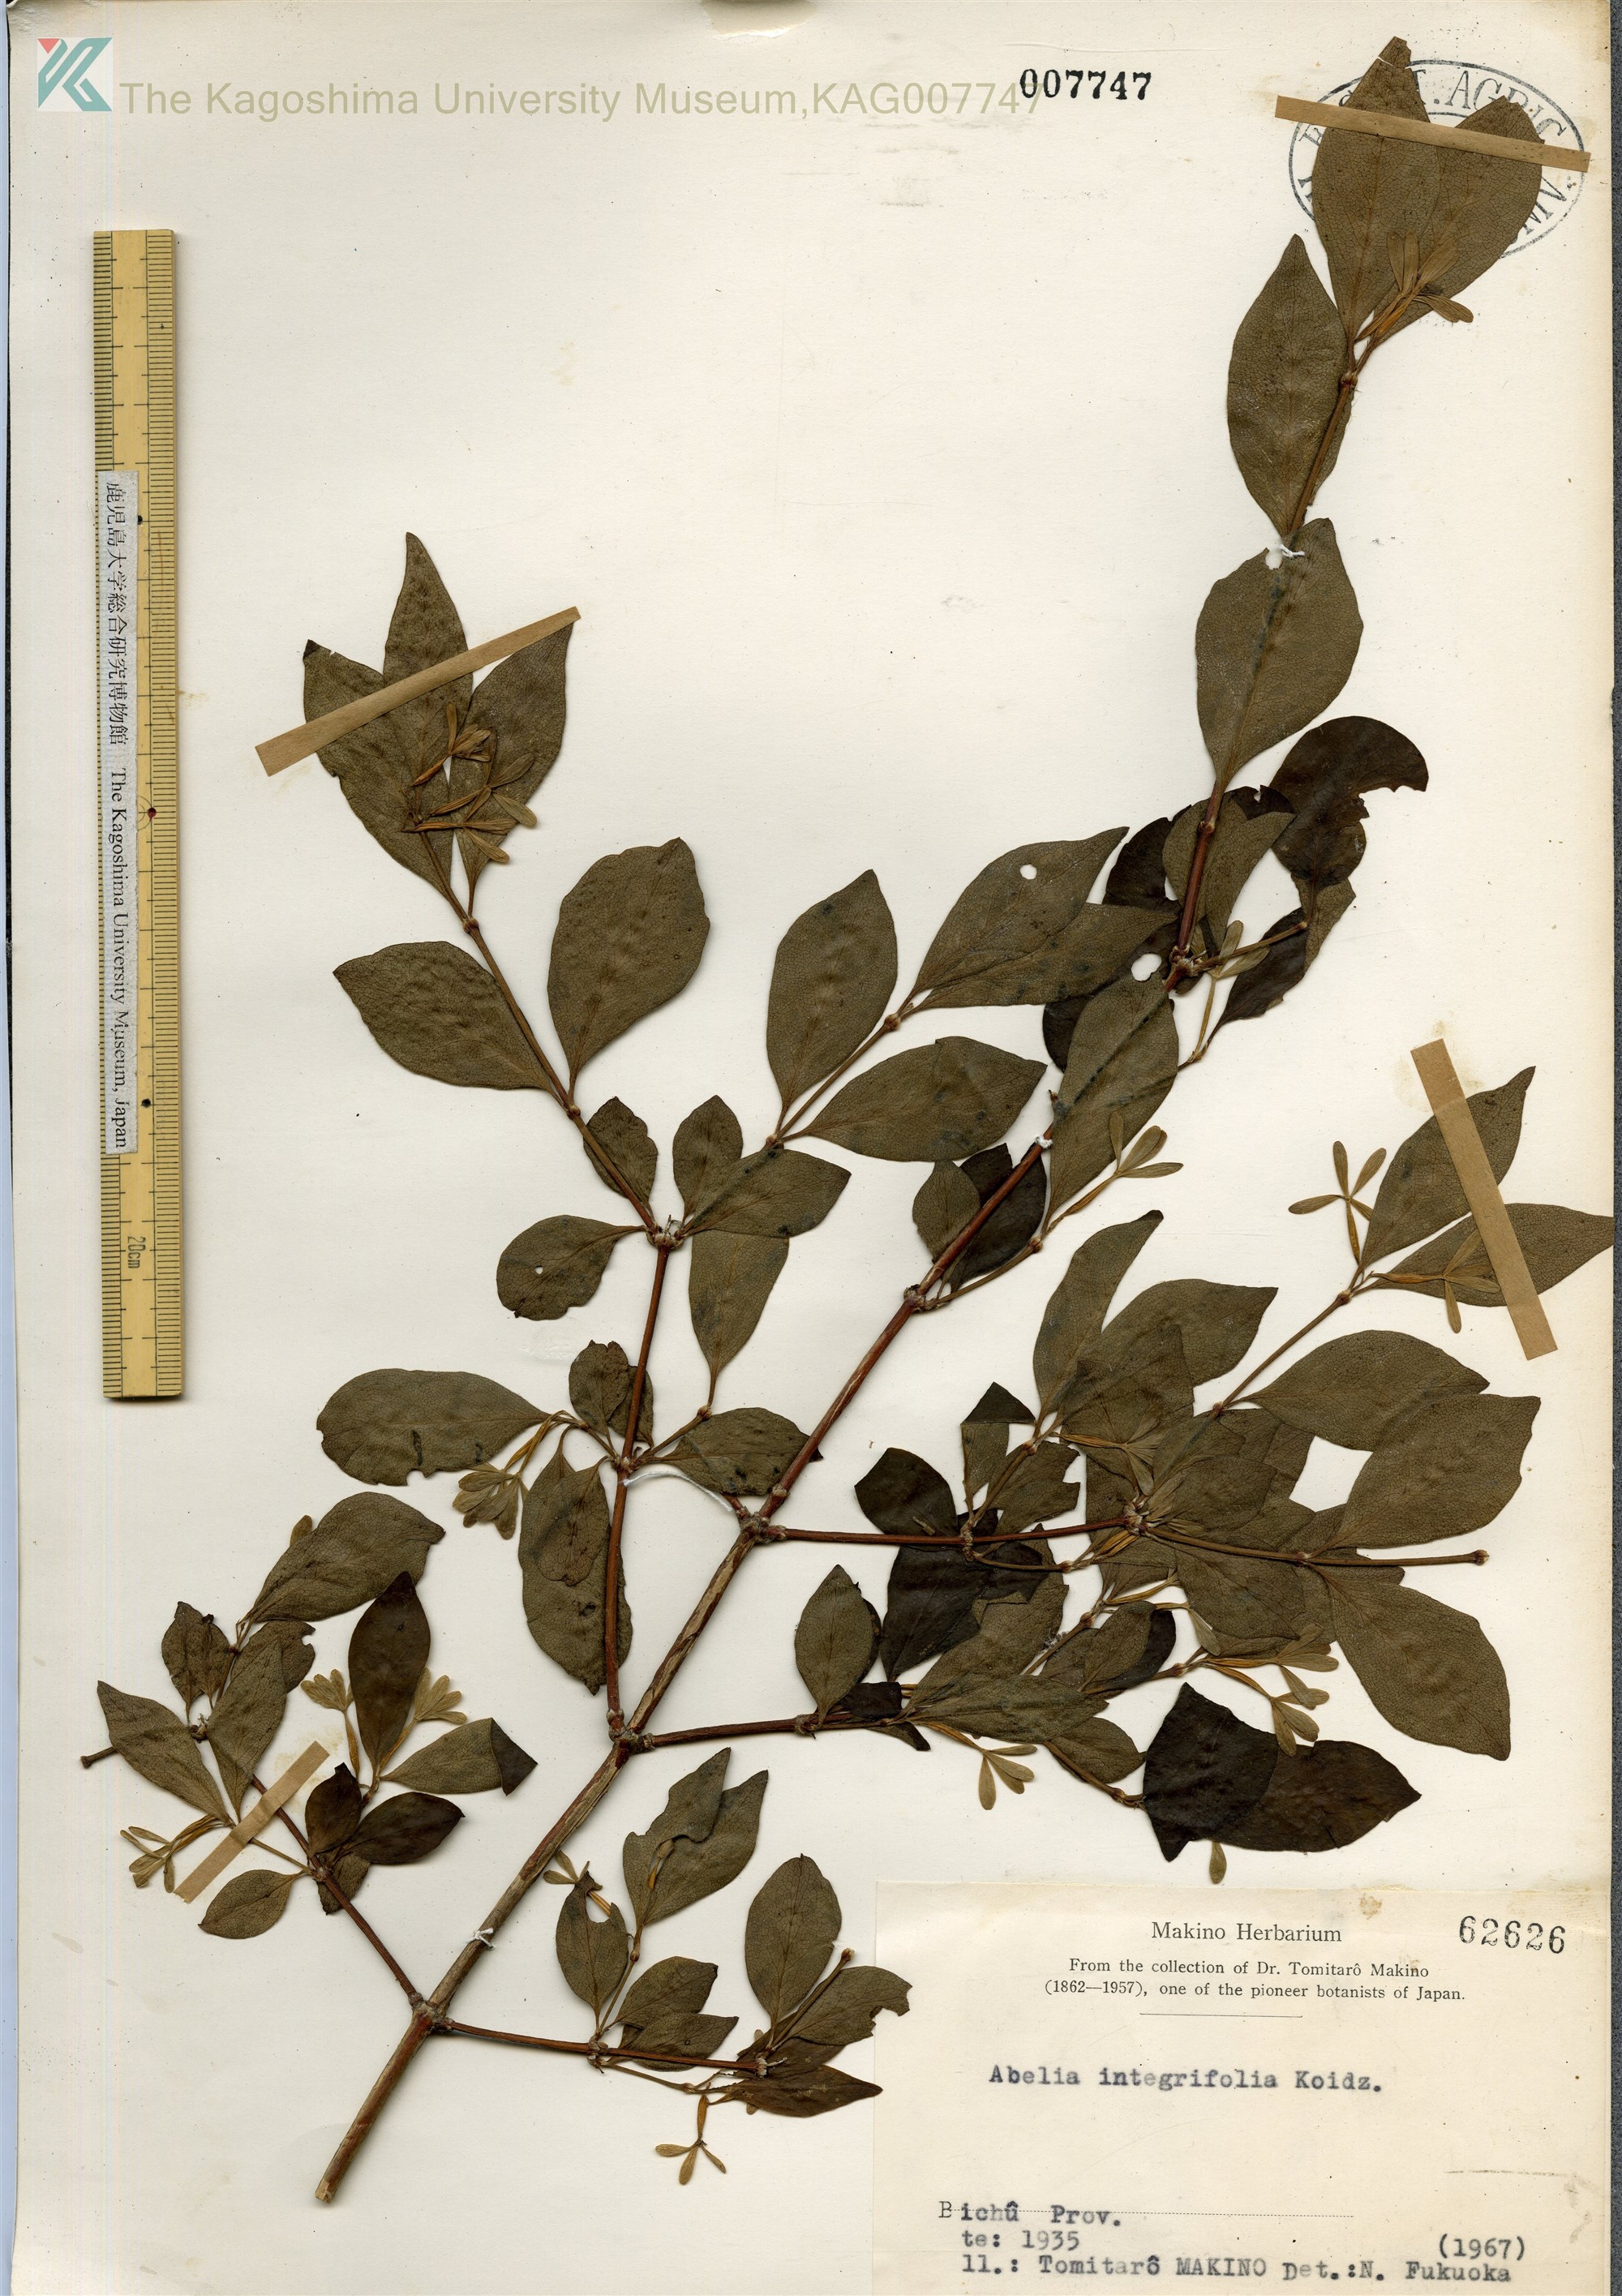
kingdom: Plantae
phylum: Tracheophyta
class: Magnoliopsida
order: Dipsacales
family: Caprifoliaceae
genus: Zabelia
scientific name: Zabelia integrifolia
